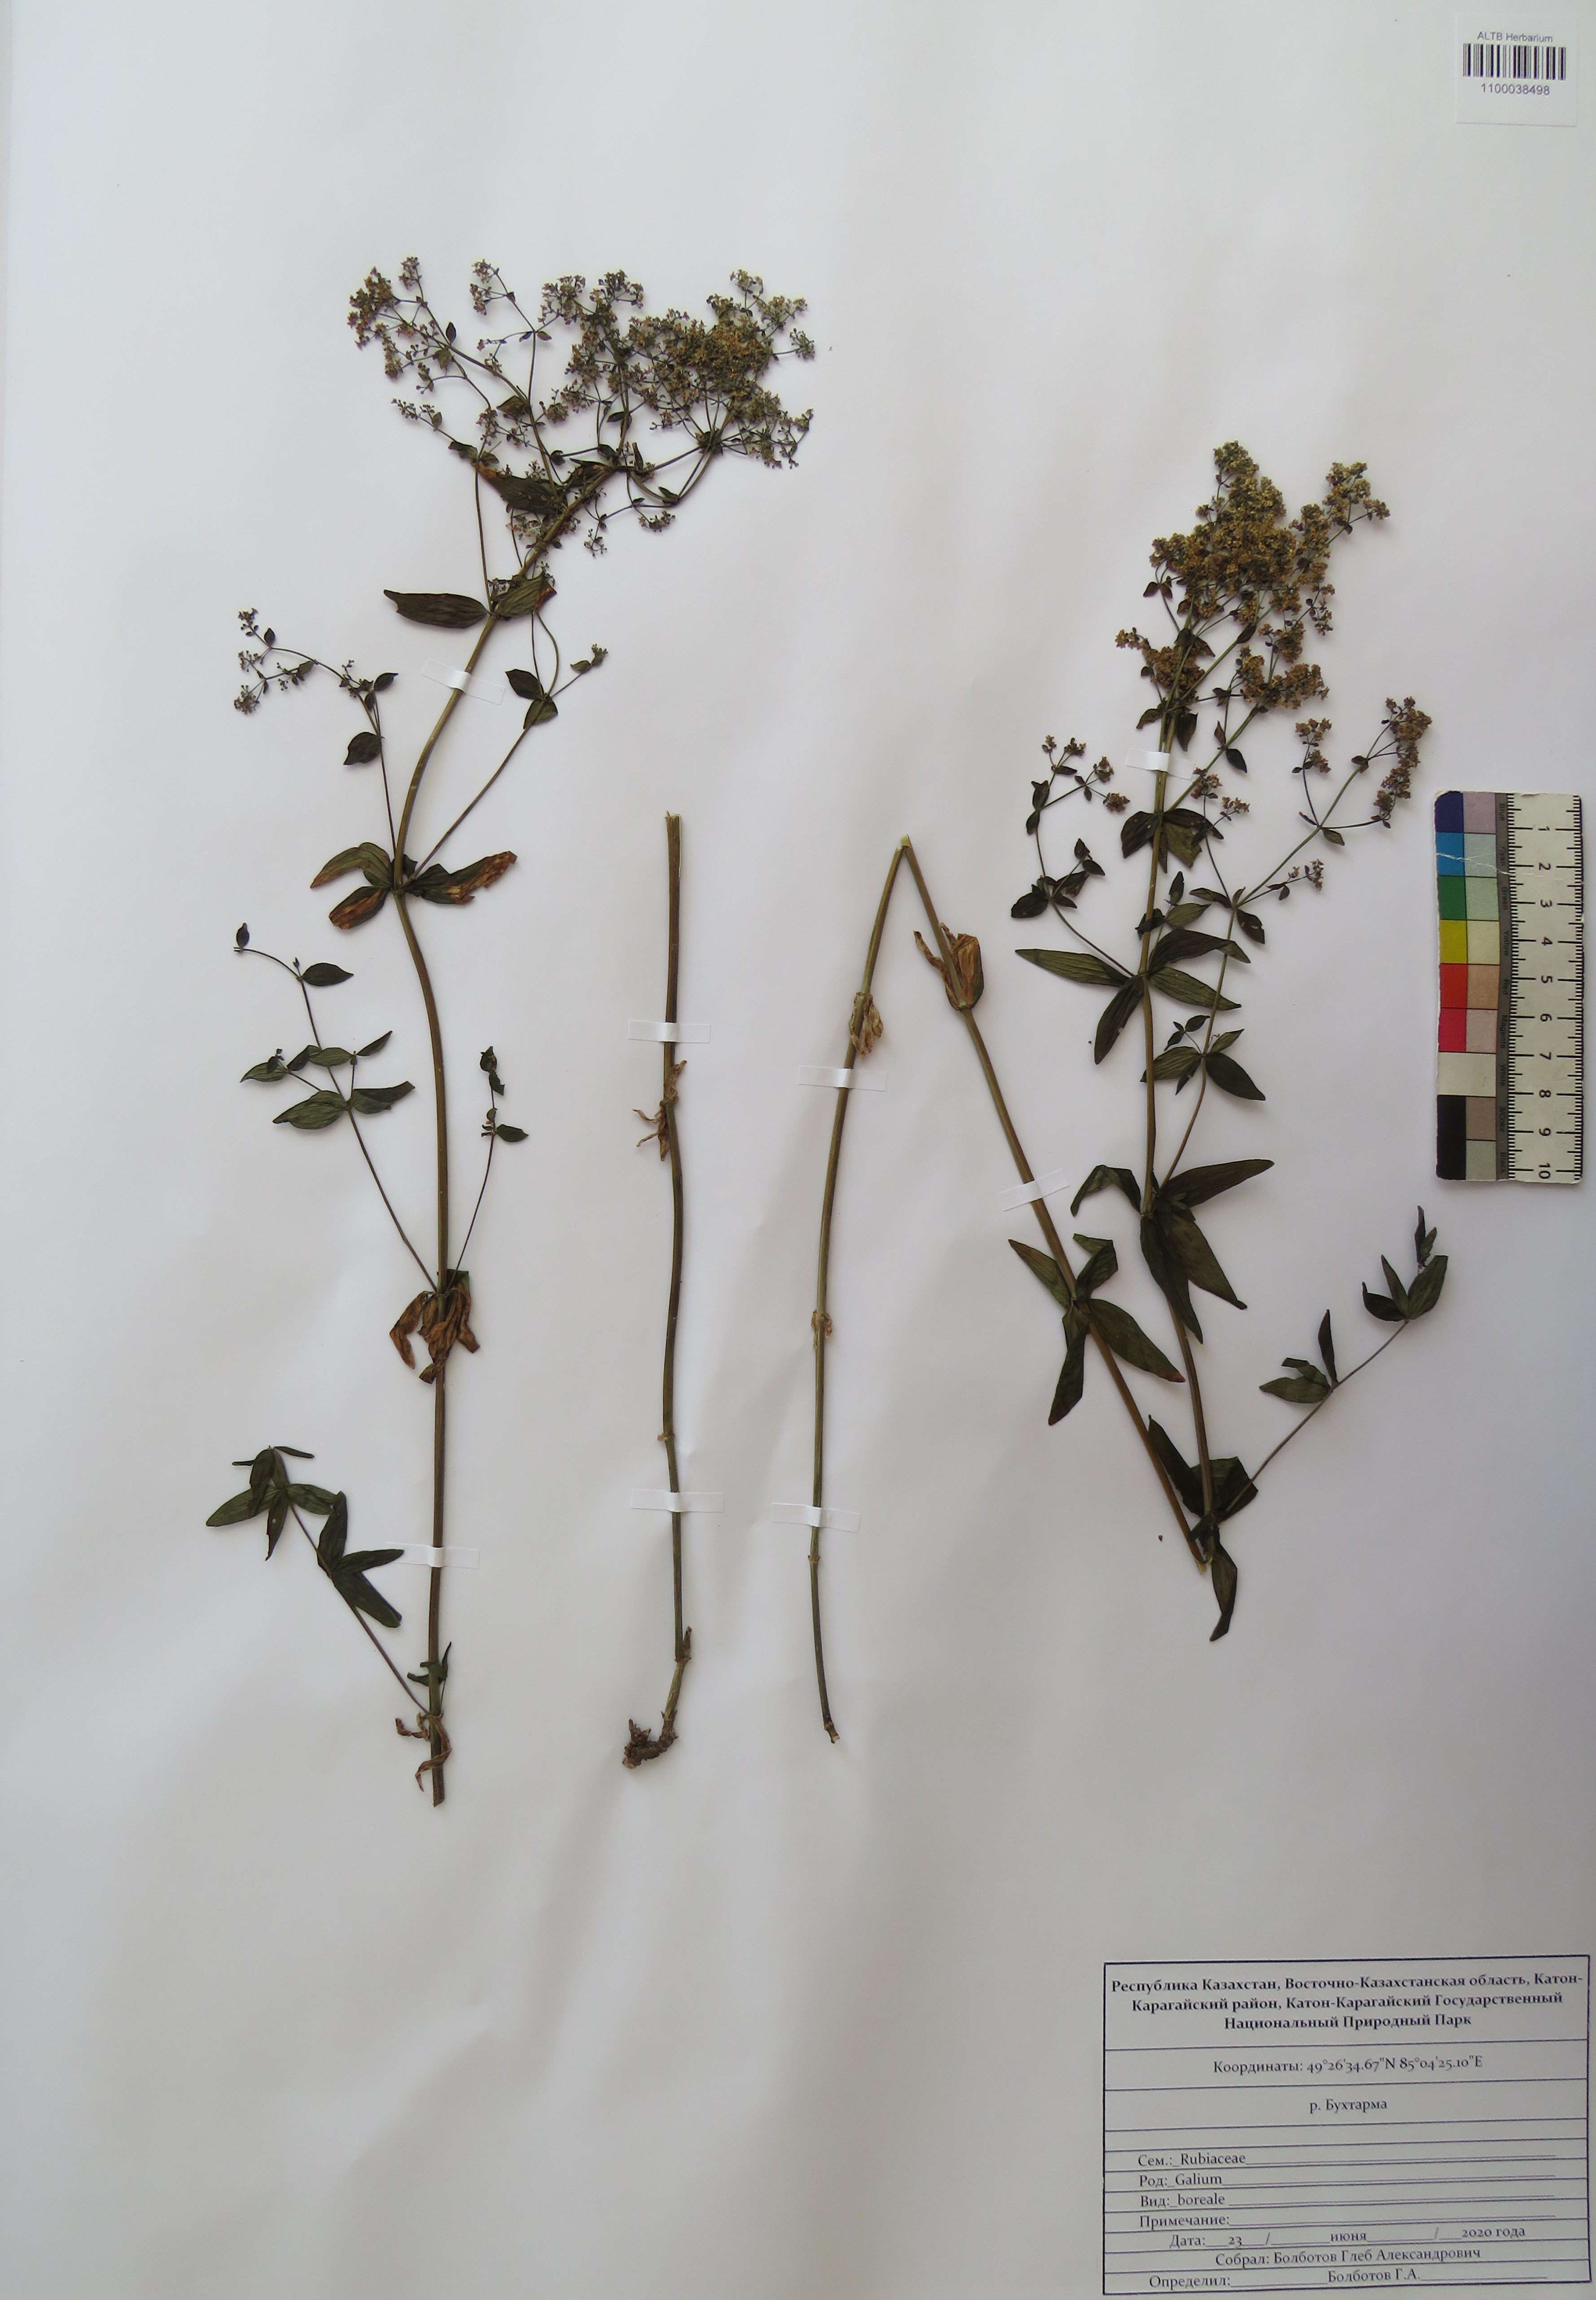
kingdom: Plantae
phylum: Tracheophyta
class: Magnoliopsida
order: Gentianales
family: Rubiaceae
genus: Galium
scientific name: Galium boreale
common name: Northern bedstraw
